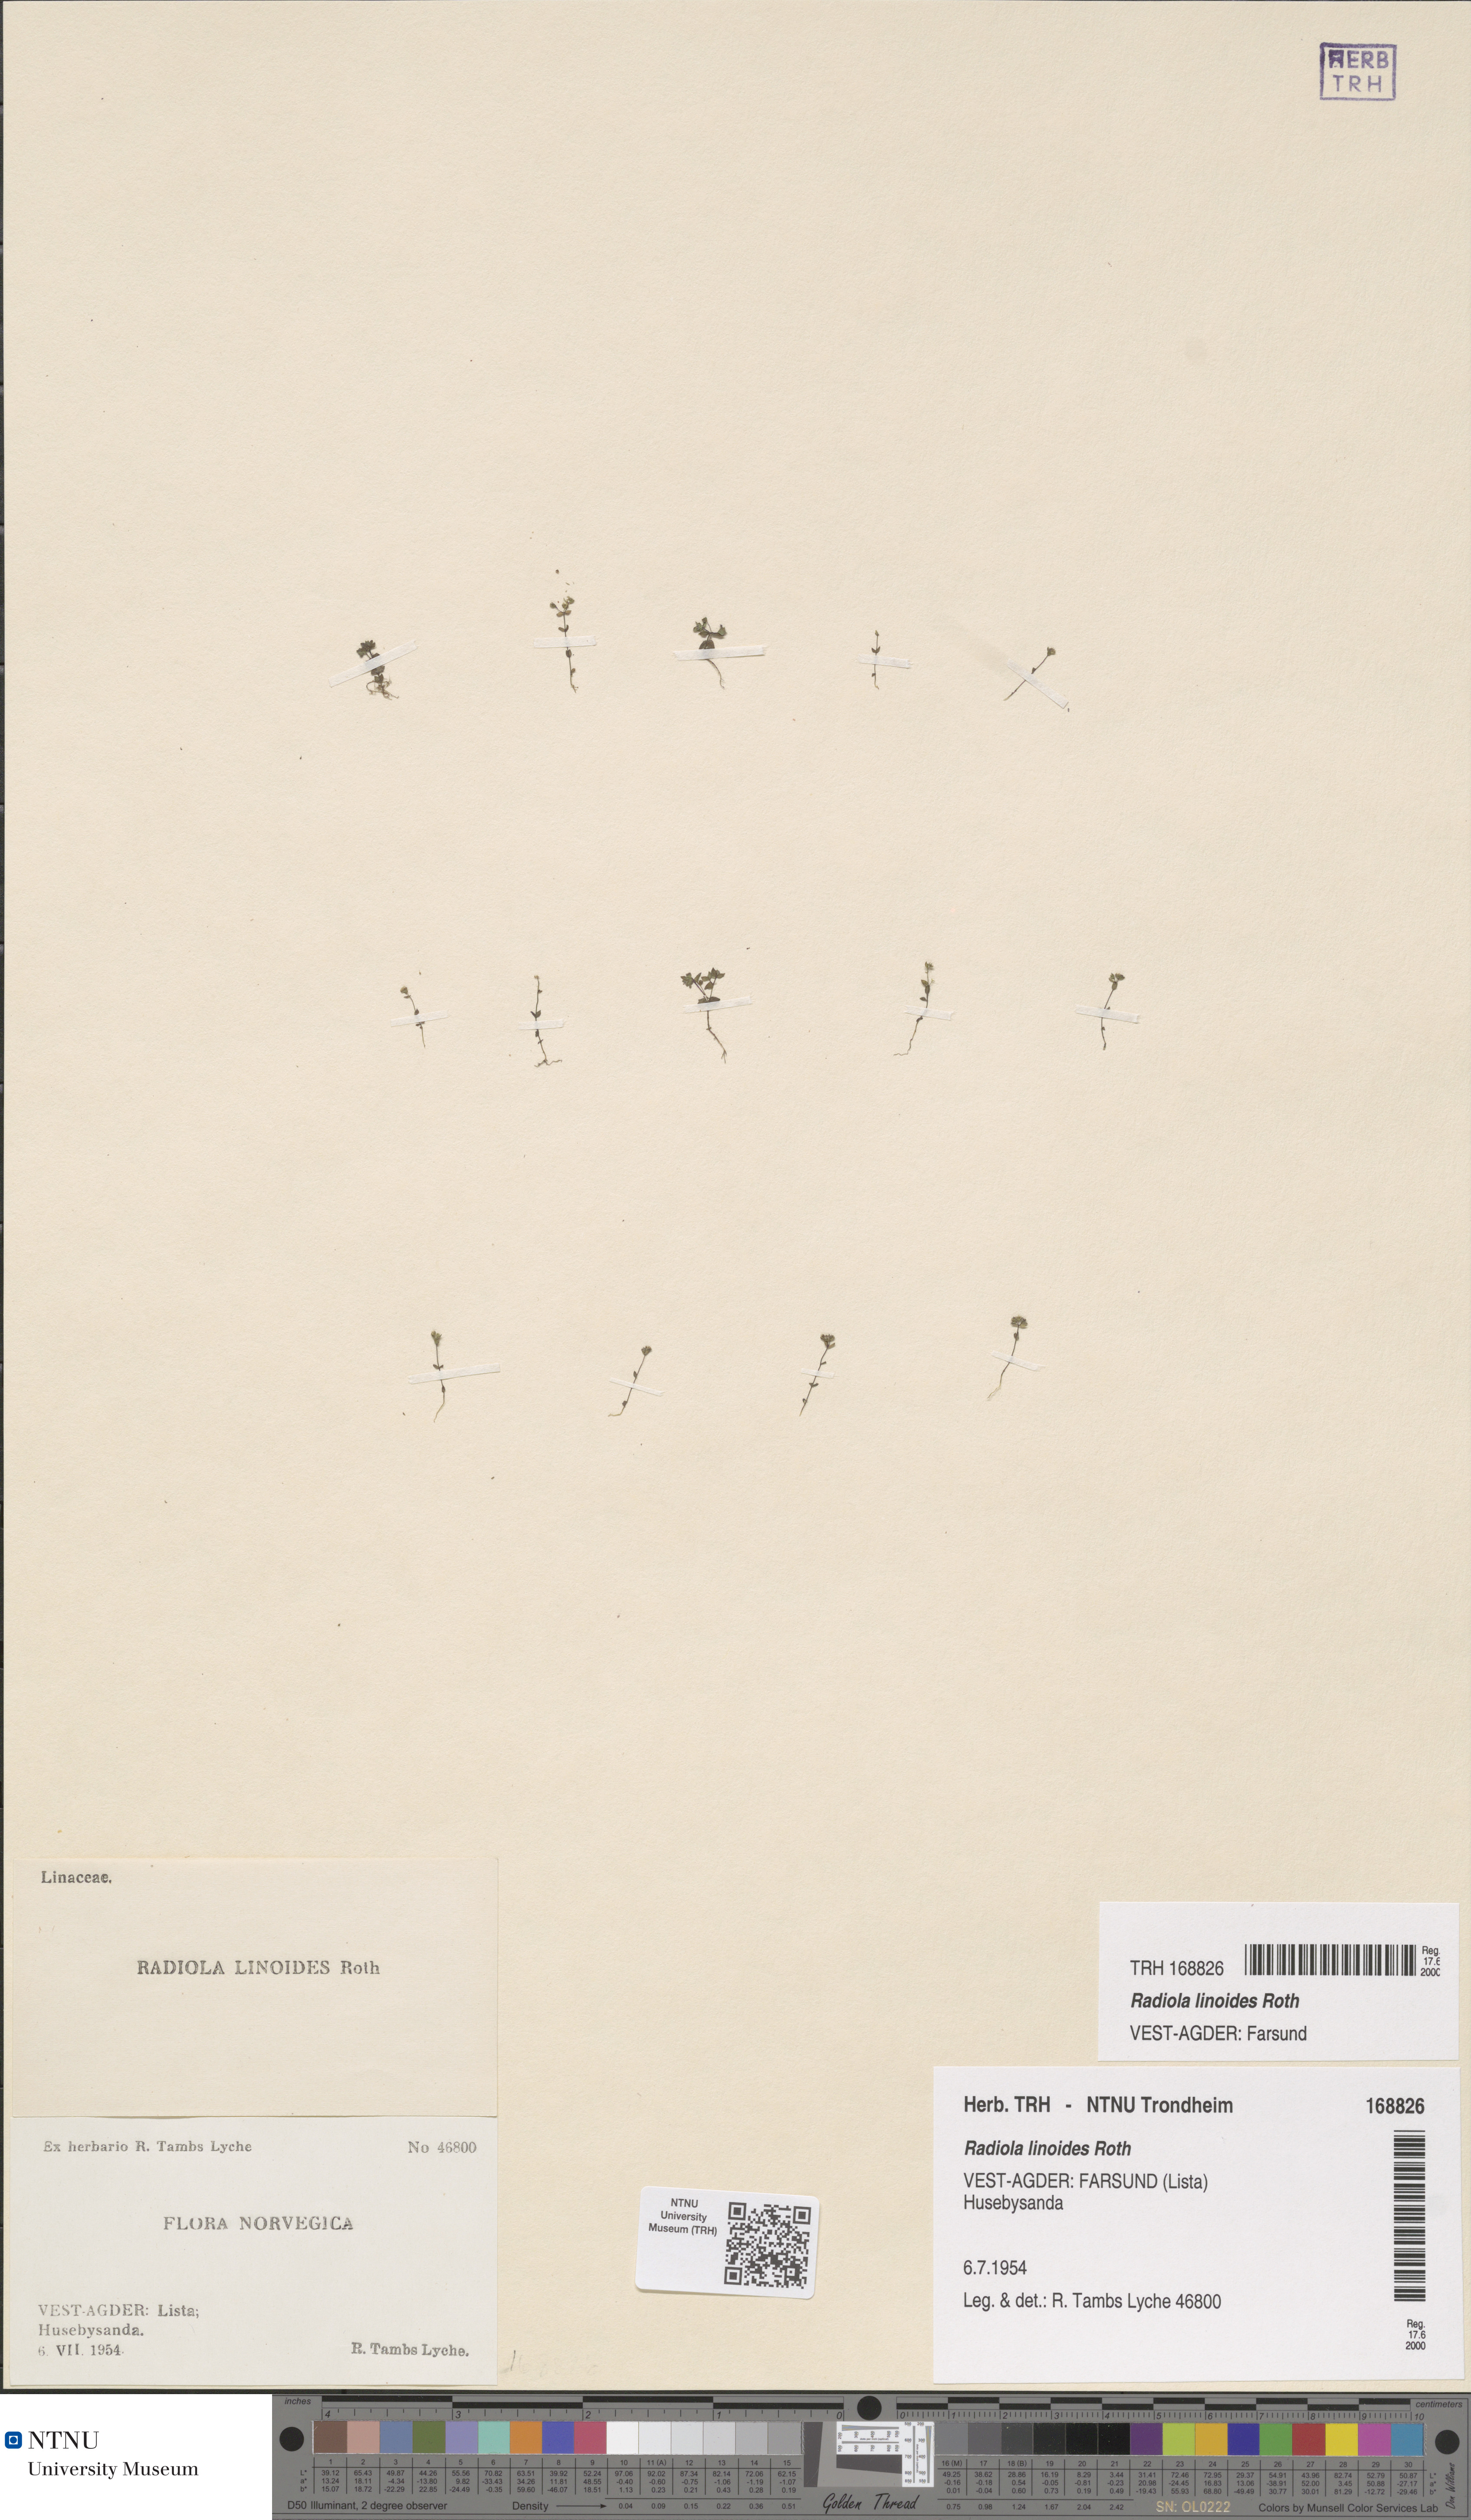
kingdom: Plantae
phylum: Tracheophyta
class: Magnoliopsida
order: Malpighiales
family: Linaceae
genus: Radiola
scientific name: Radiola linoides
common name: Allseed
